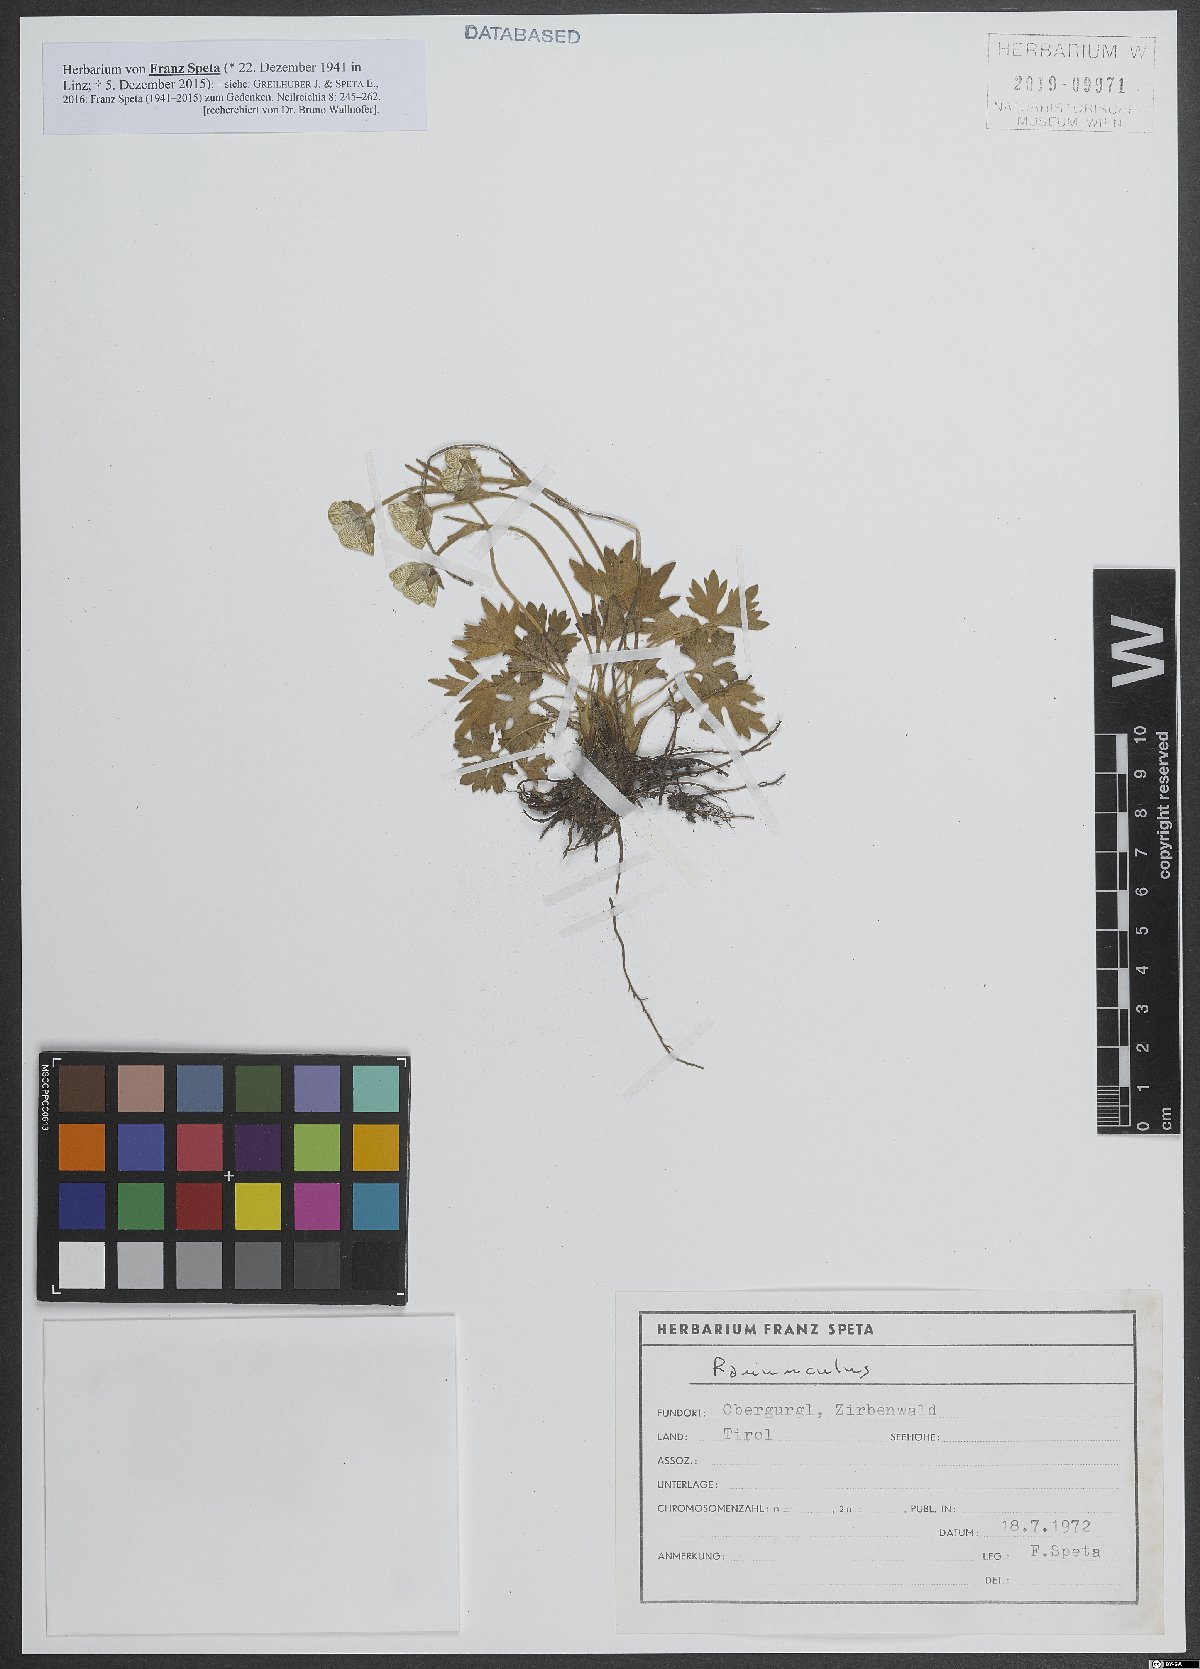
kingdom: Plantae
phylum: Tracheophyta
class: Magnoliopsida
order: Ranunculales
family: Ranunculaceae
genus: Ranunculus
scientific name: Ranunculus
